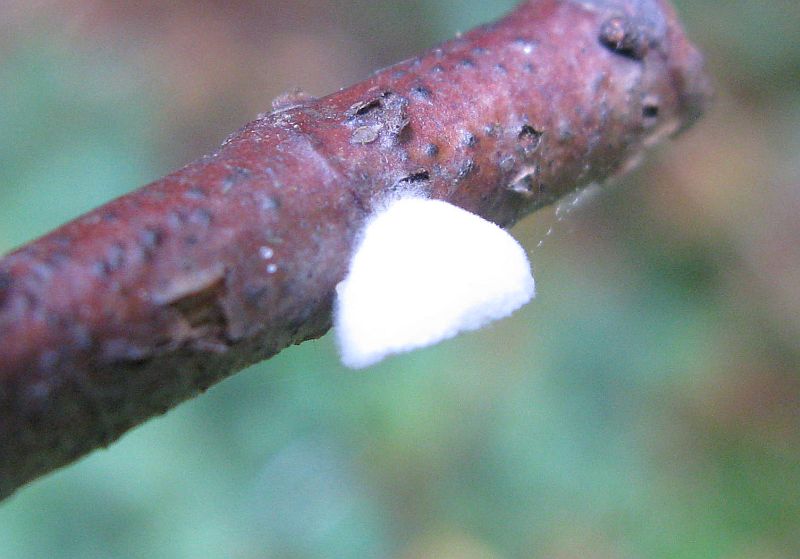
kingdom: Fungi
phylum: Basidiomycota
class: Agaricomycetes
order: Agaricales
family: Crepidotaceae
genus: Crepidotus
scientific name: Crepidotus cesatii
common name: almindelig muslingesvamp
